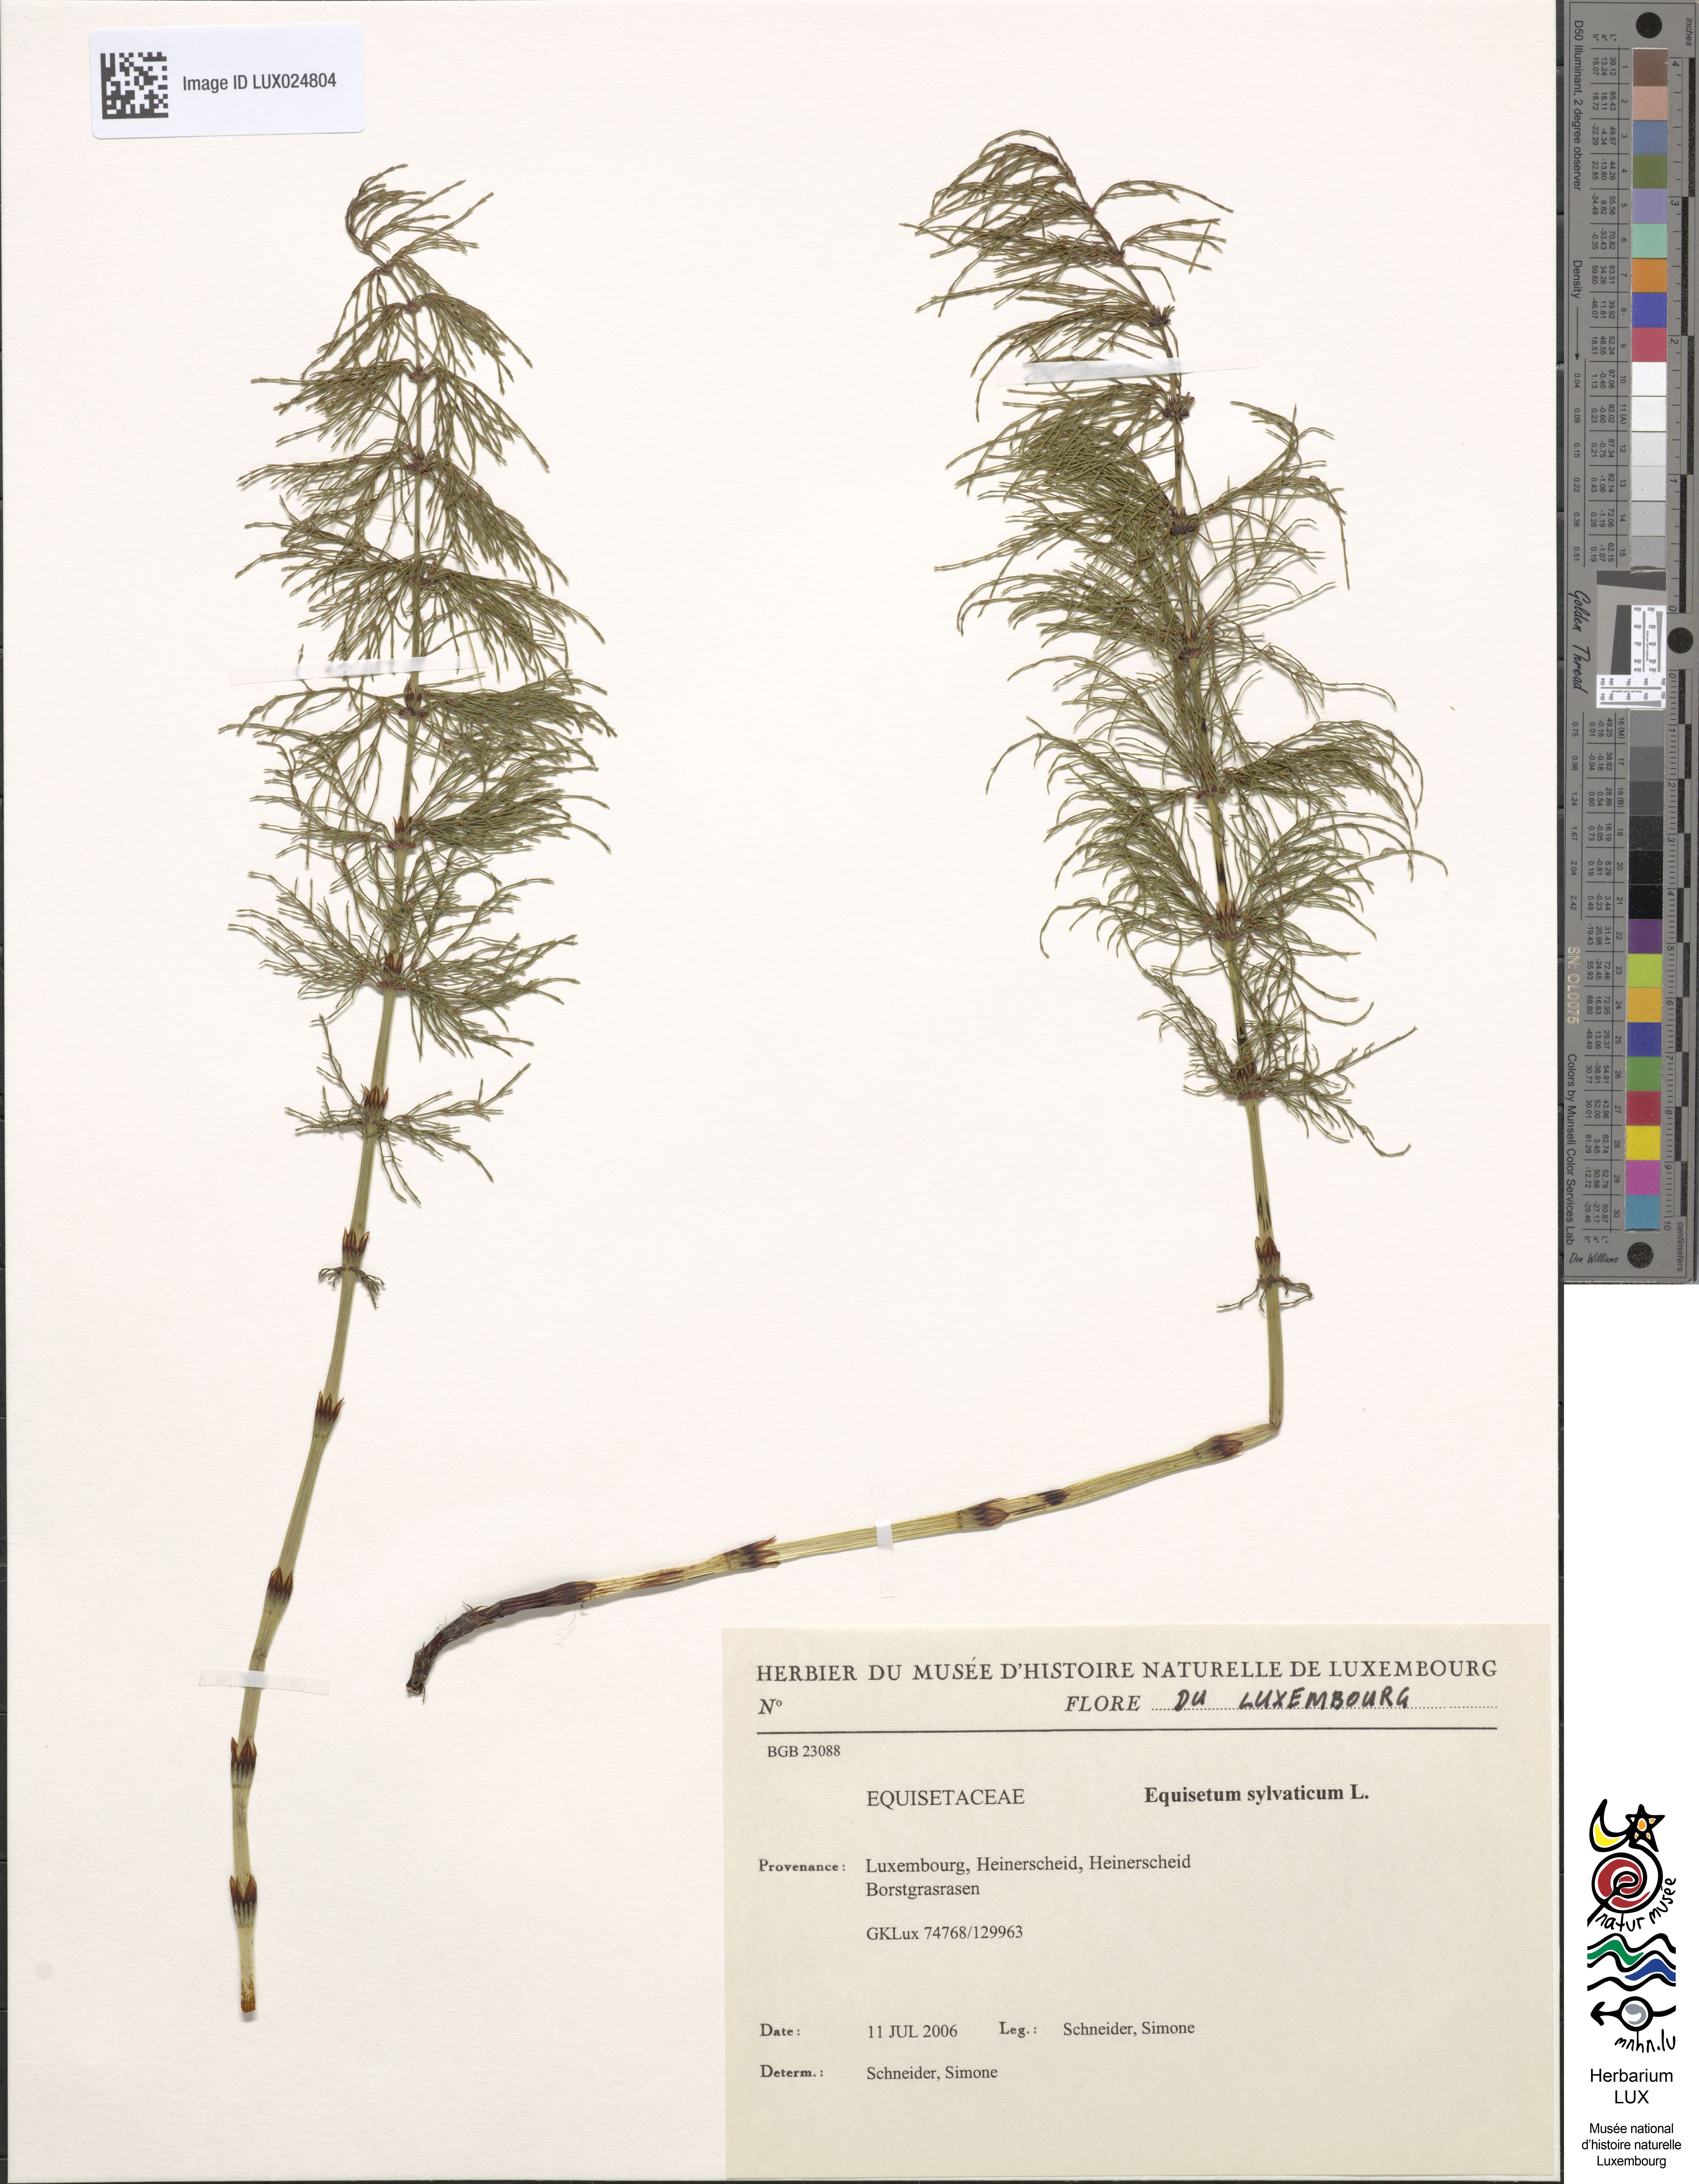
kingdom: Plantae
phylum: Tracheophyta
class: Polypodiopsida
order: Equisetales
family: Equisetaceae
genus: Equisetum
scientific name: Equisetum sylvaticum
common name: Wood horsetail
